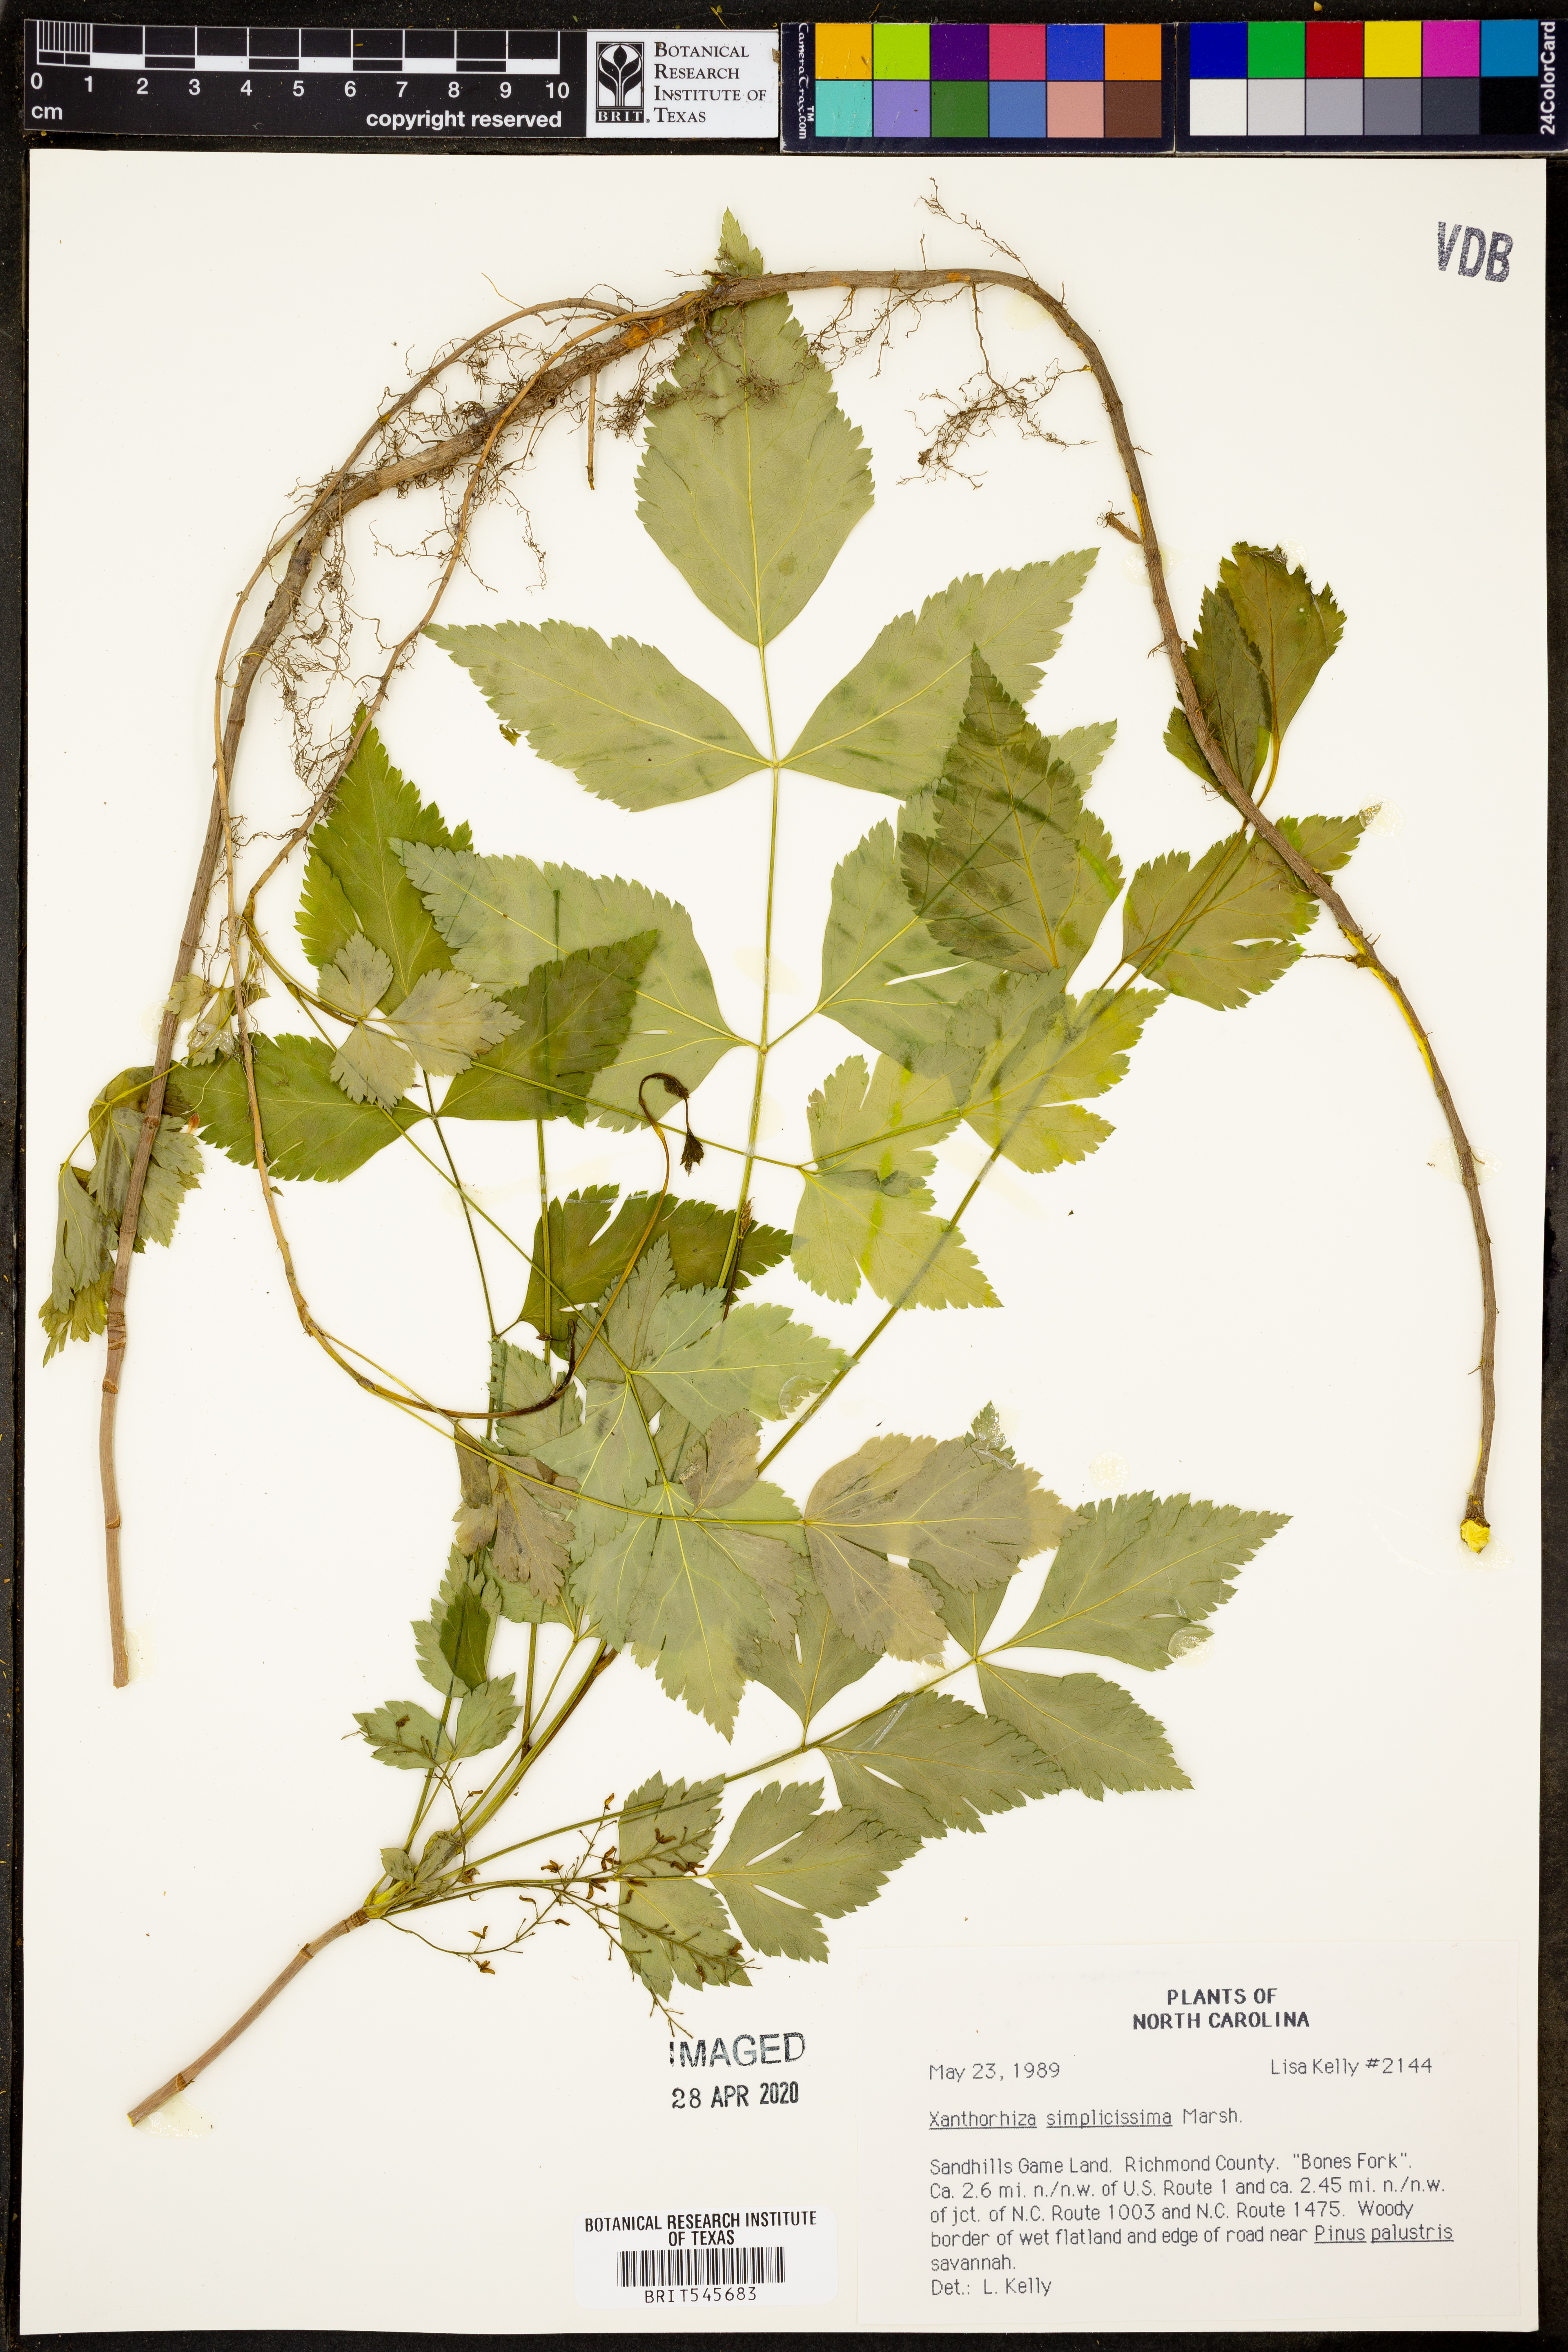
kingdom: Plantae
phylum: Tracheophyta
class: Magnoliopsida
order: Ranunculales
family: Ranunculaceae
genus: Xanthorhiza
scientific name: Xanthorhiza simplicissima
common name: Yellowroot
